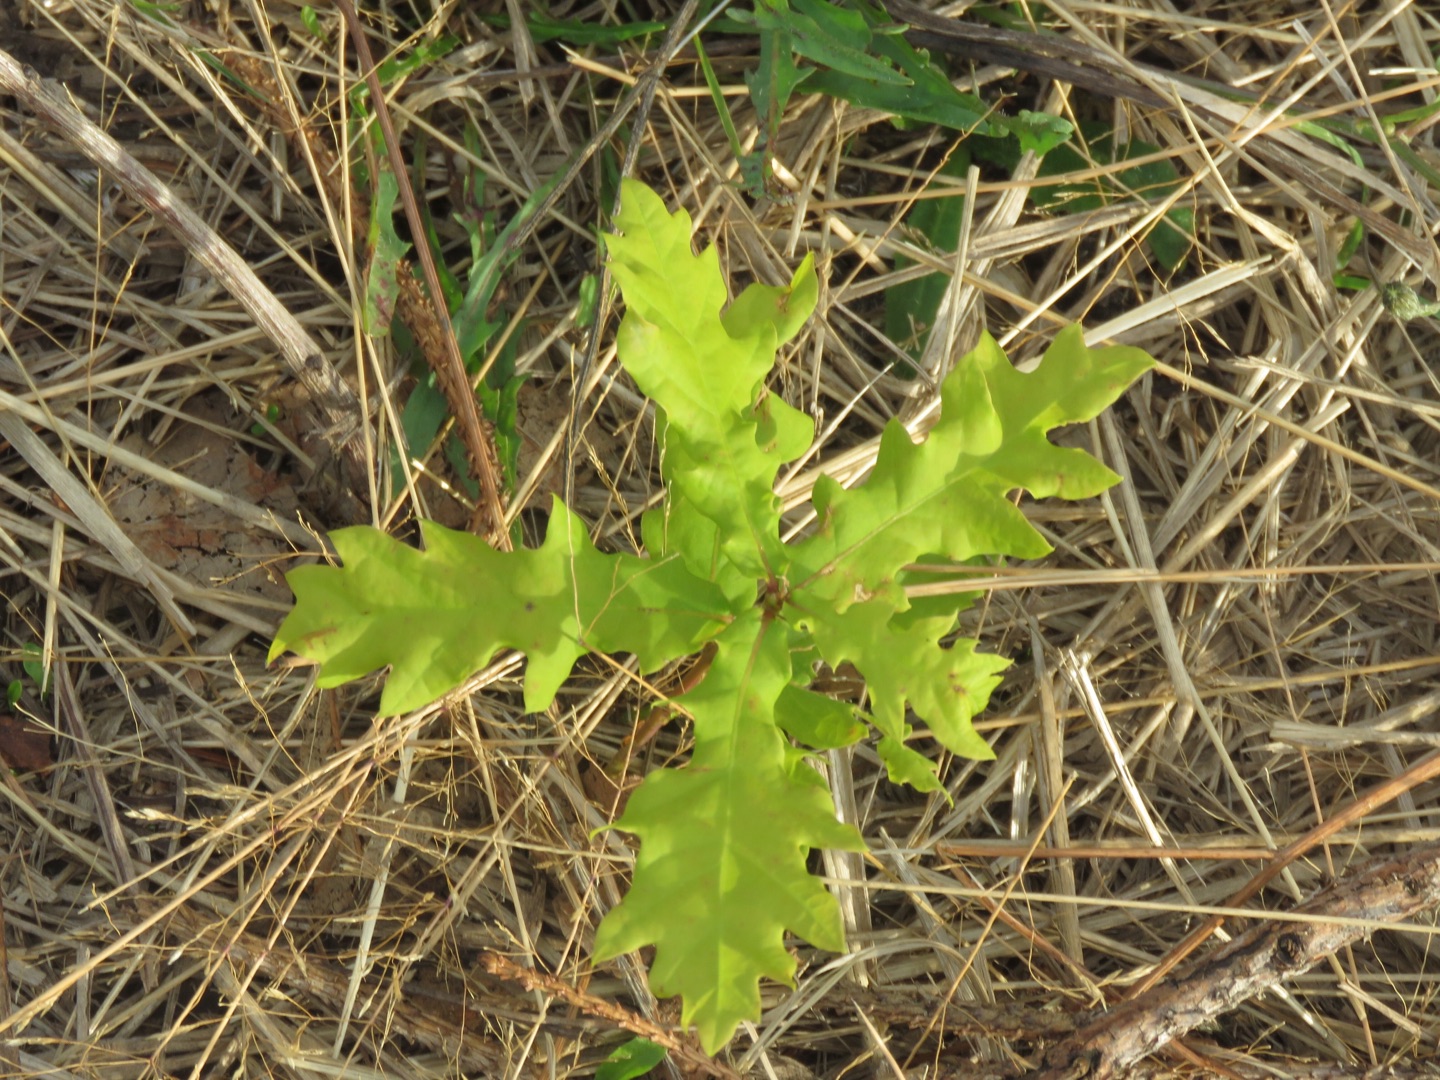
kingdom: Plantae
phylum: Tracheophyta
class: Magnoliopsida
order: Fagales
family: Fagaceae
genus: Quercus
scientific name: Quercus cerris
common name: Frynse-eg
